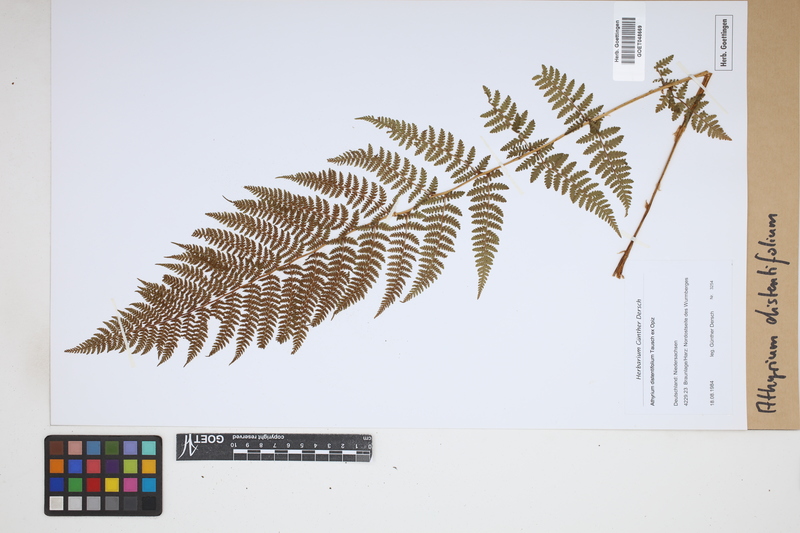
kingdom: Plantae
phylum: Tracheophyta
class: Polypodiopsida
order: Polypodiales
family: Athyriaceae
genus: Pseudathyrium
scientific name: Pseudathyrium alpestre
